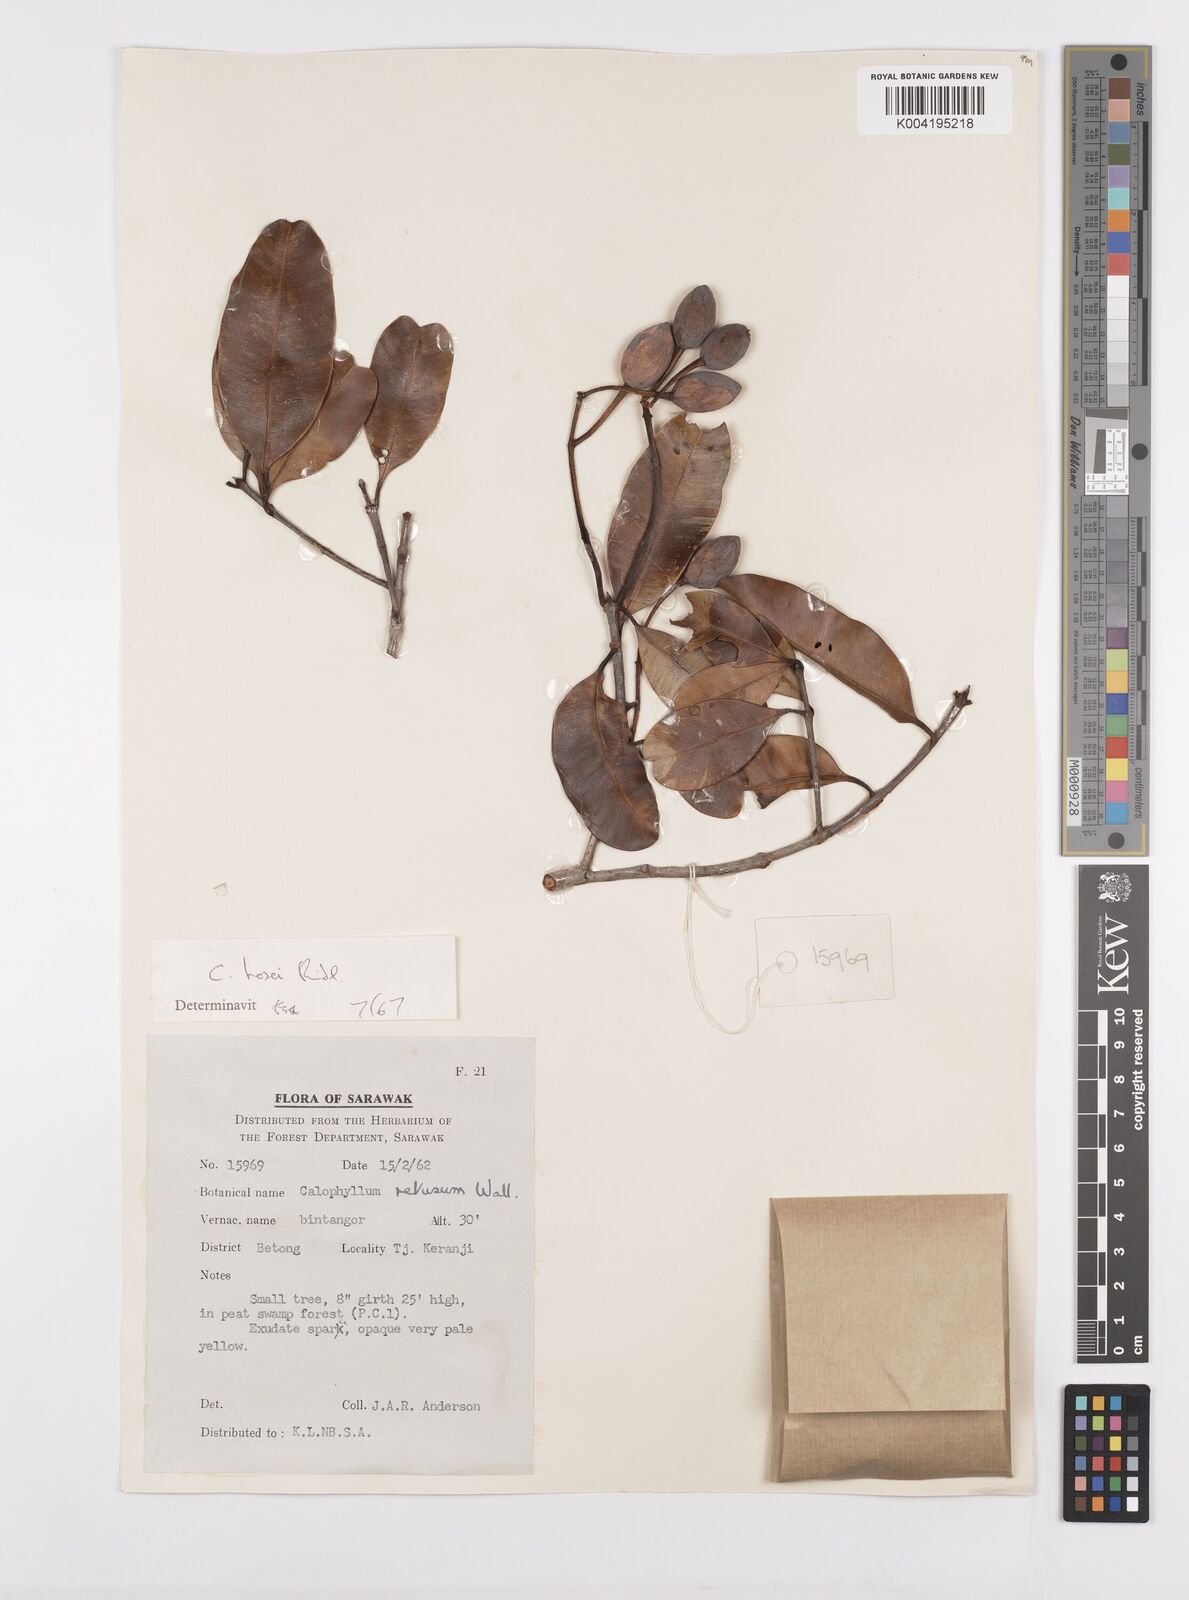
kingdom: Plantae
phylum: Tracheophyta
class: Magnoliopsida
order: Malpighiales
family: Calophyllaceae
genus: Calophyllum
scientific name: Calophyllum hosei
